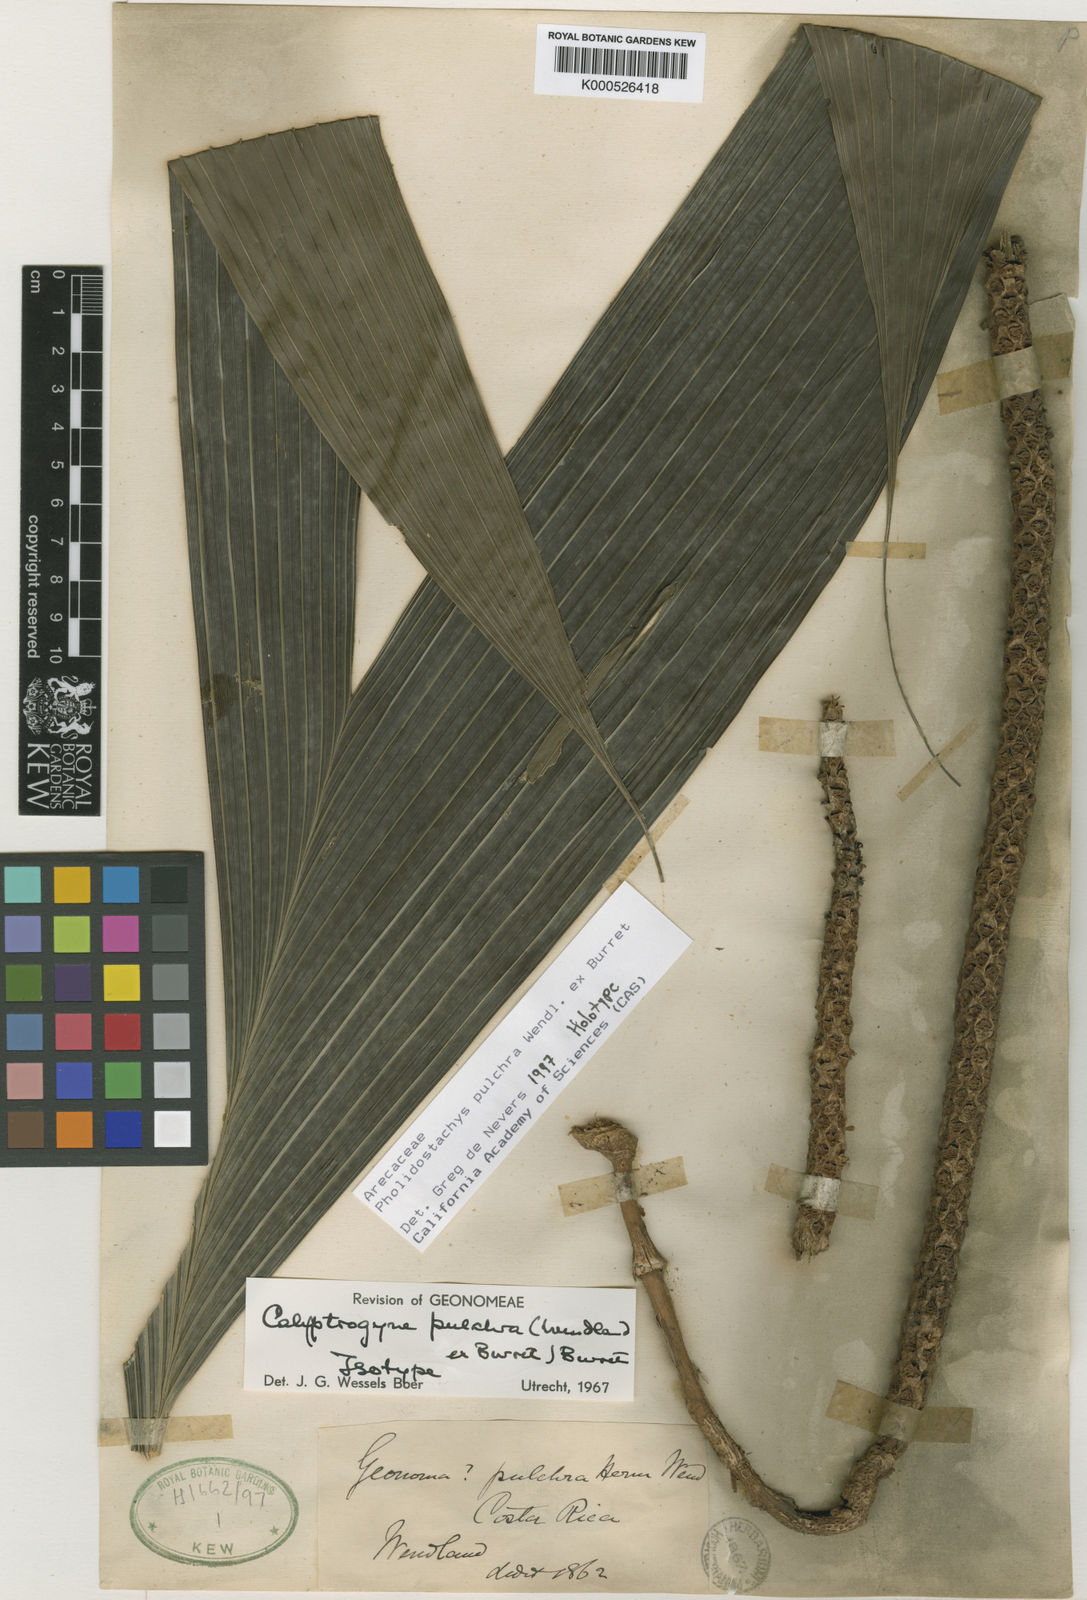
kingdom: Plantae
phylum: Tracheophyta
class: Liliopsida
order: Arecales
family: Arecaceae
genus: Pholidostachys
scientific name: Pholidostachys
